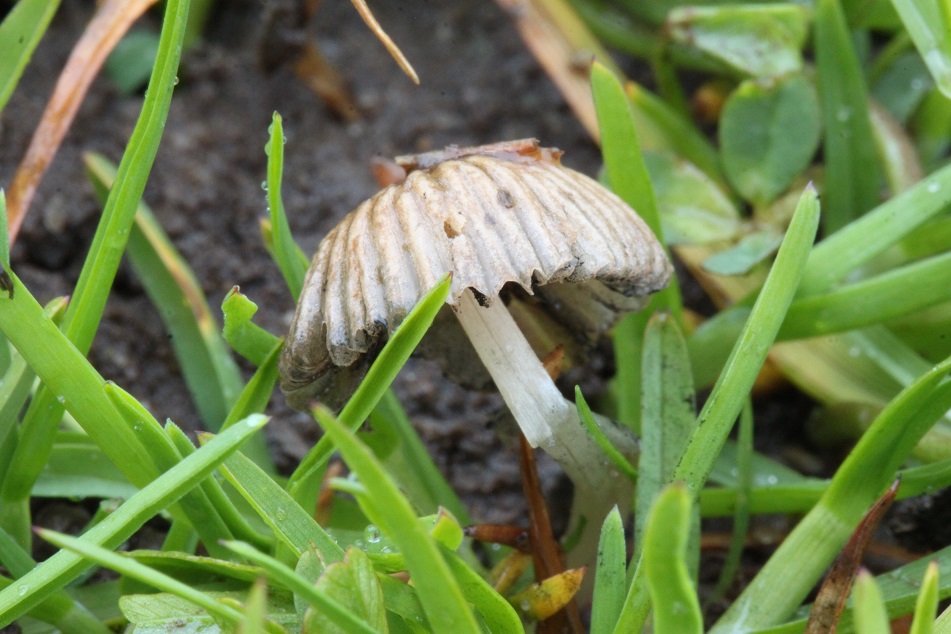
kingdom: Fungi
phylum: Basidiomycota
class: Agaricomycetes
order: Agaricales
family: Psathyrellaceae
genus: Parasola
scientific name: Parasola schroeteri
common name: bredsporet hjulhat
